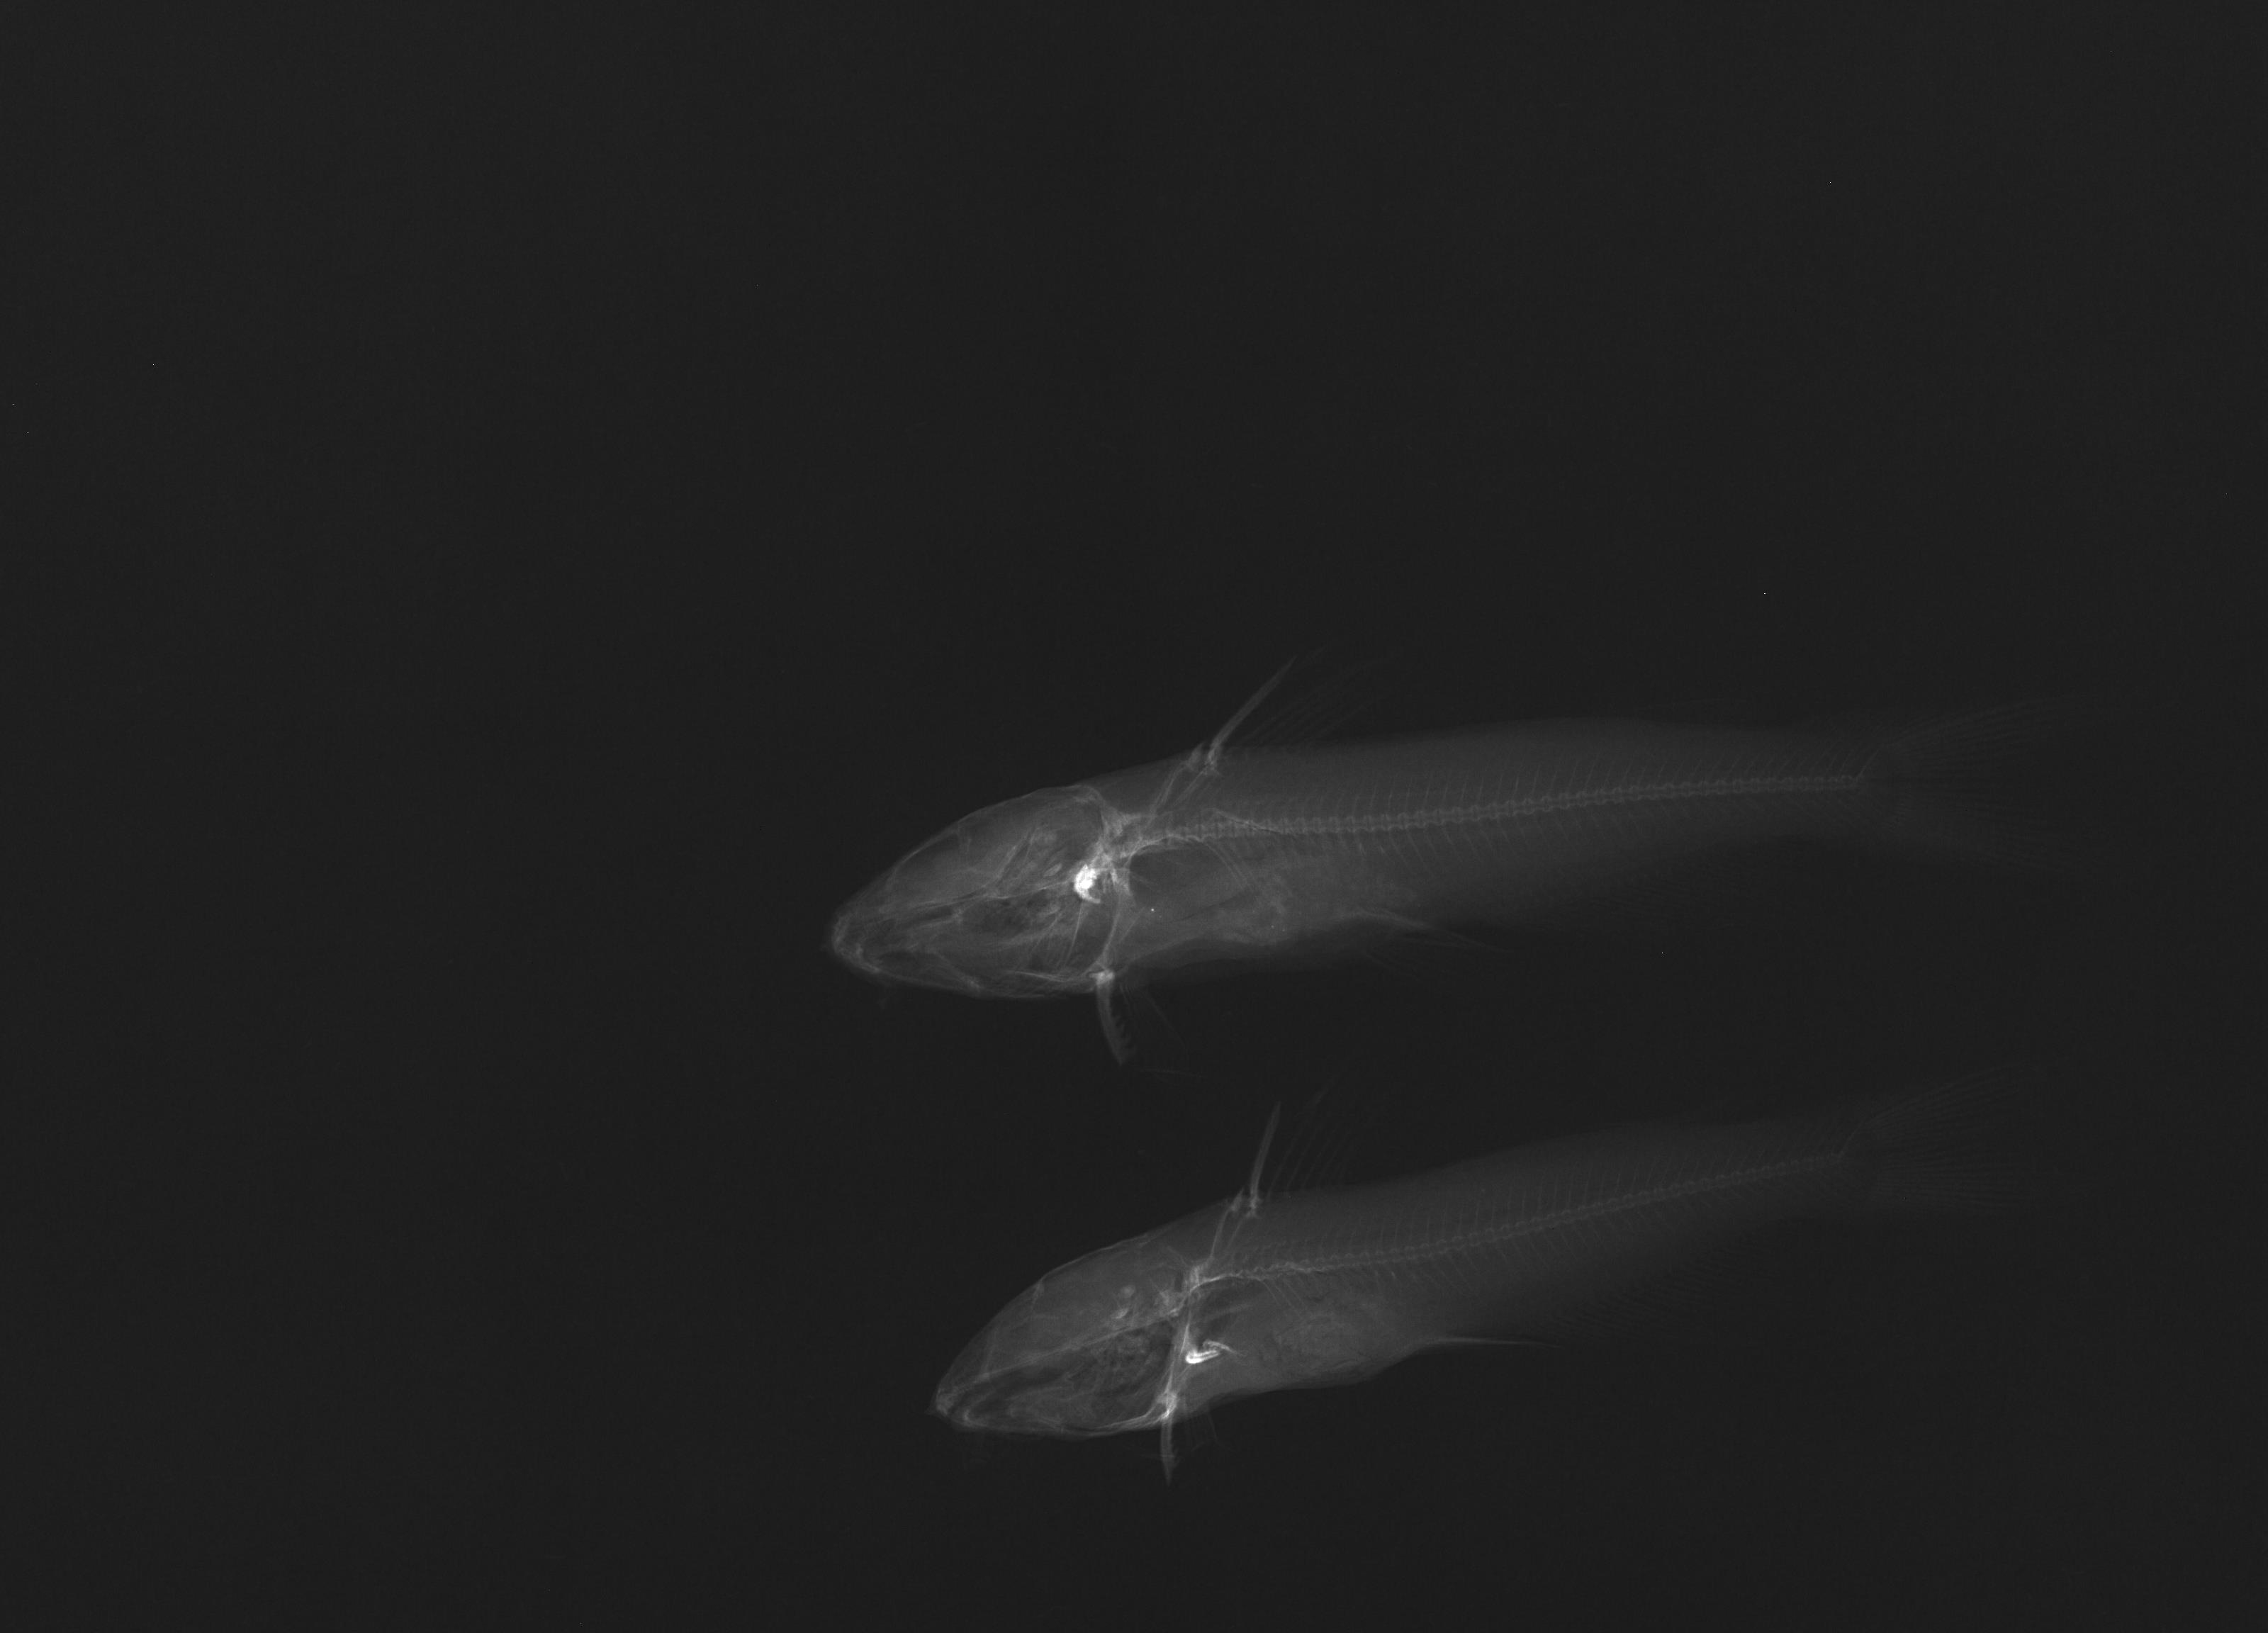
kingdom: Animalia
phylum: Chordata
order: Siluriformes
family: Ictaluridae
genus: Ictalurus
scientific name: Ictalurus lupus
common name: Headwater catfish
